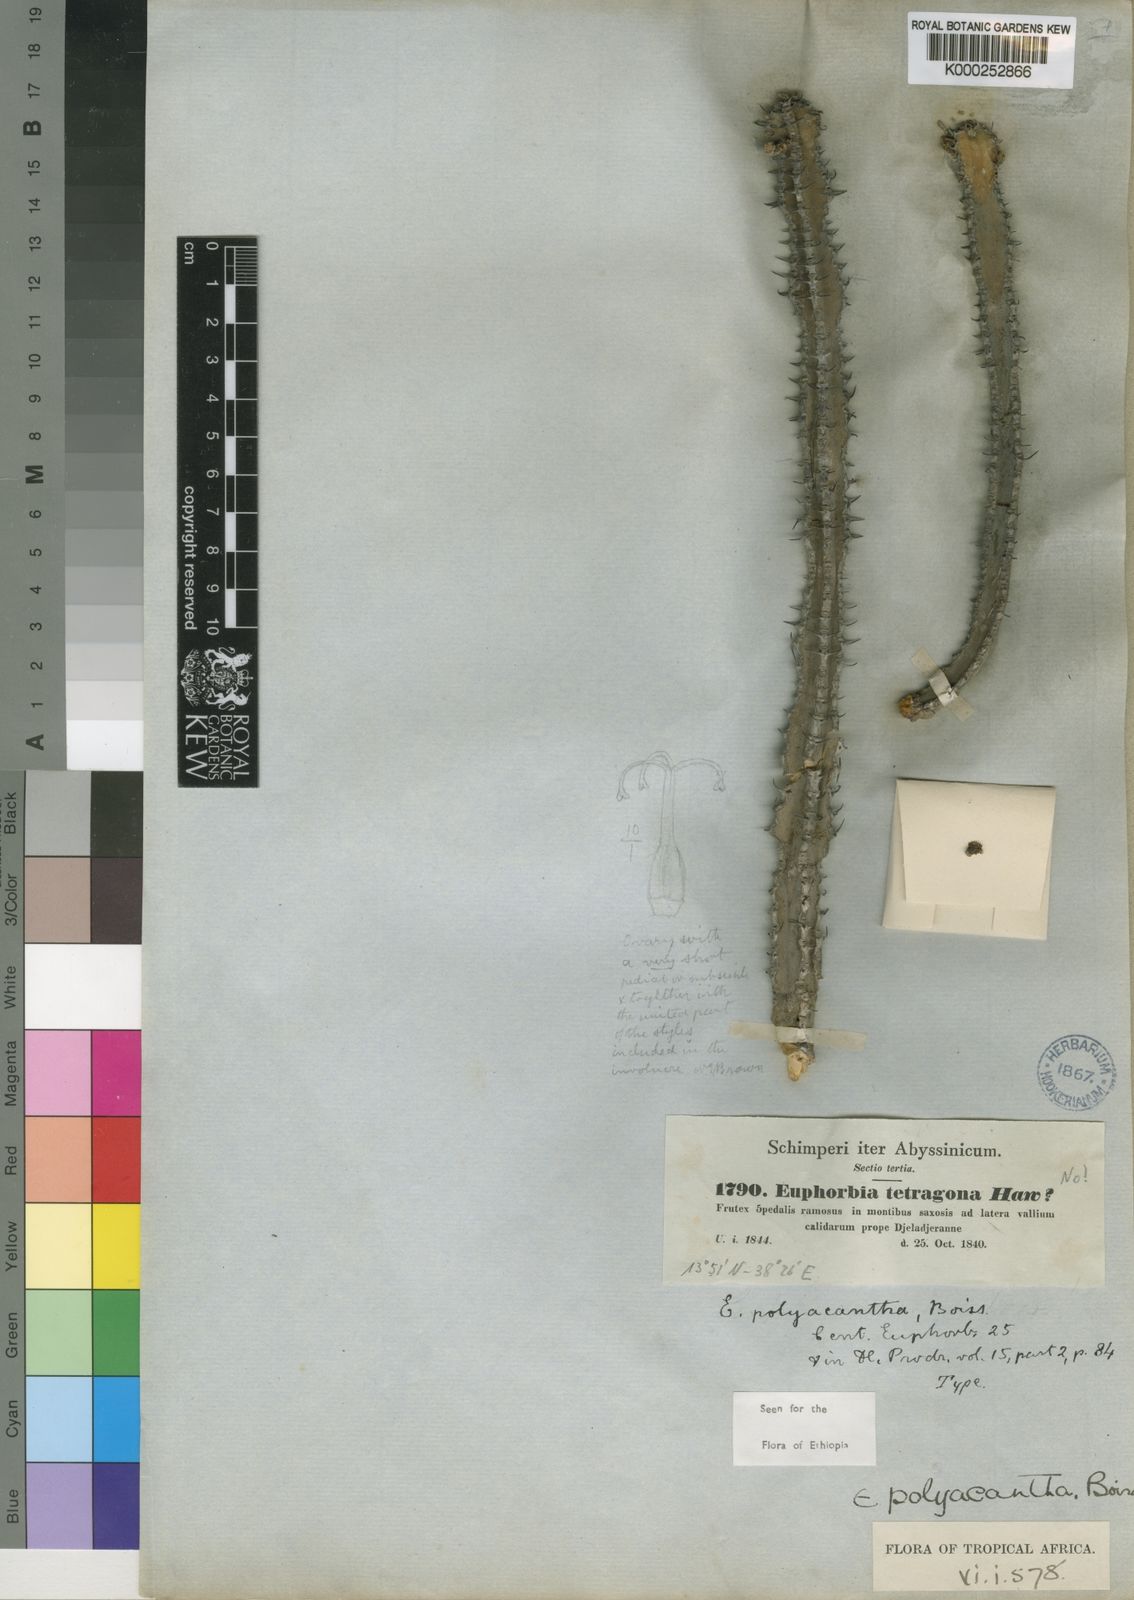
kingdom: Plantae
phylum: Tracheophyta
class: Magnoliopsida
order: Malpighiales
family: Euphorbiaceae
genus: Euphorbia
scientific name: Euphorbia polyacantha
